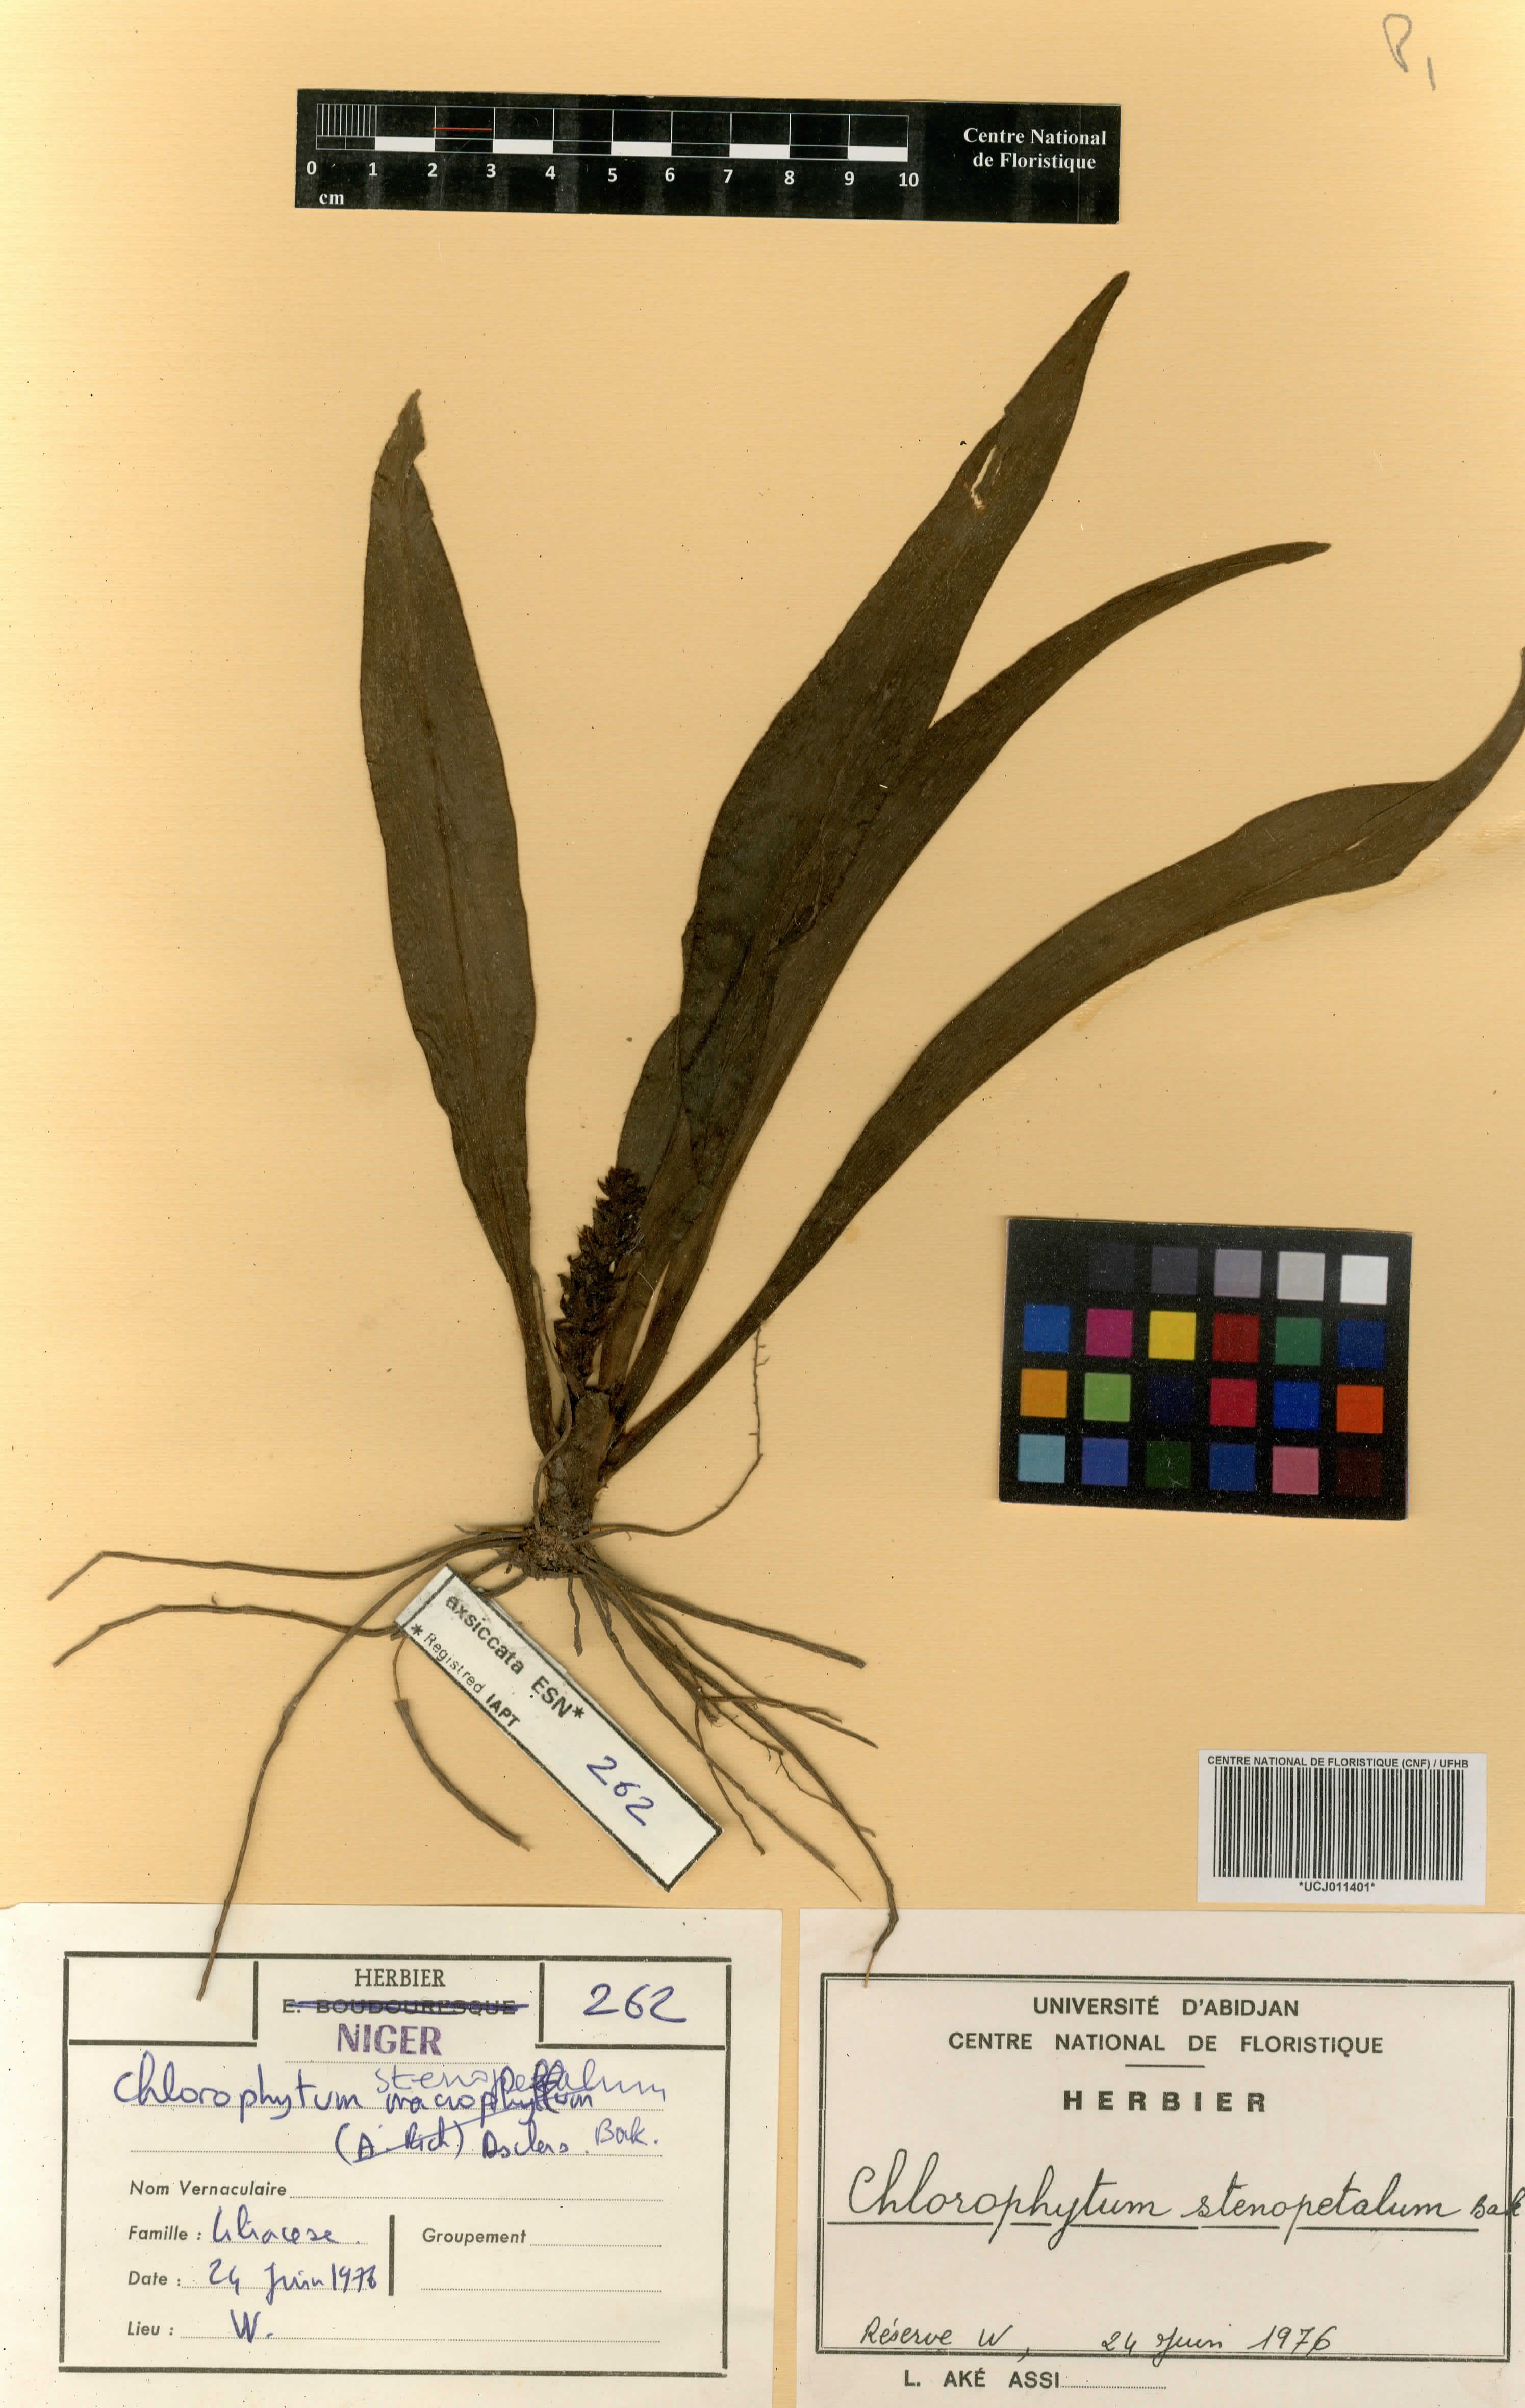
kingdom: Plantae
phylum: Tracheophyta
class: Liliopsida
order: Asparagales
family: Asparagaceae
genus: Chlorophytum
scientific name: Chlorophytum stenopetalum
